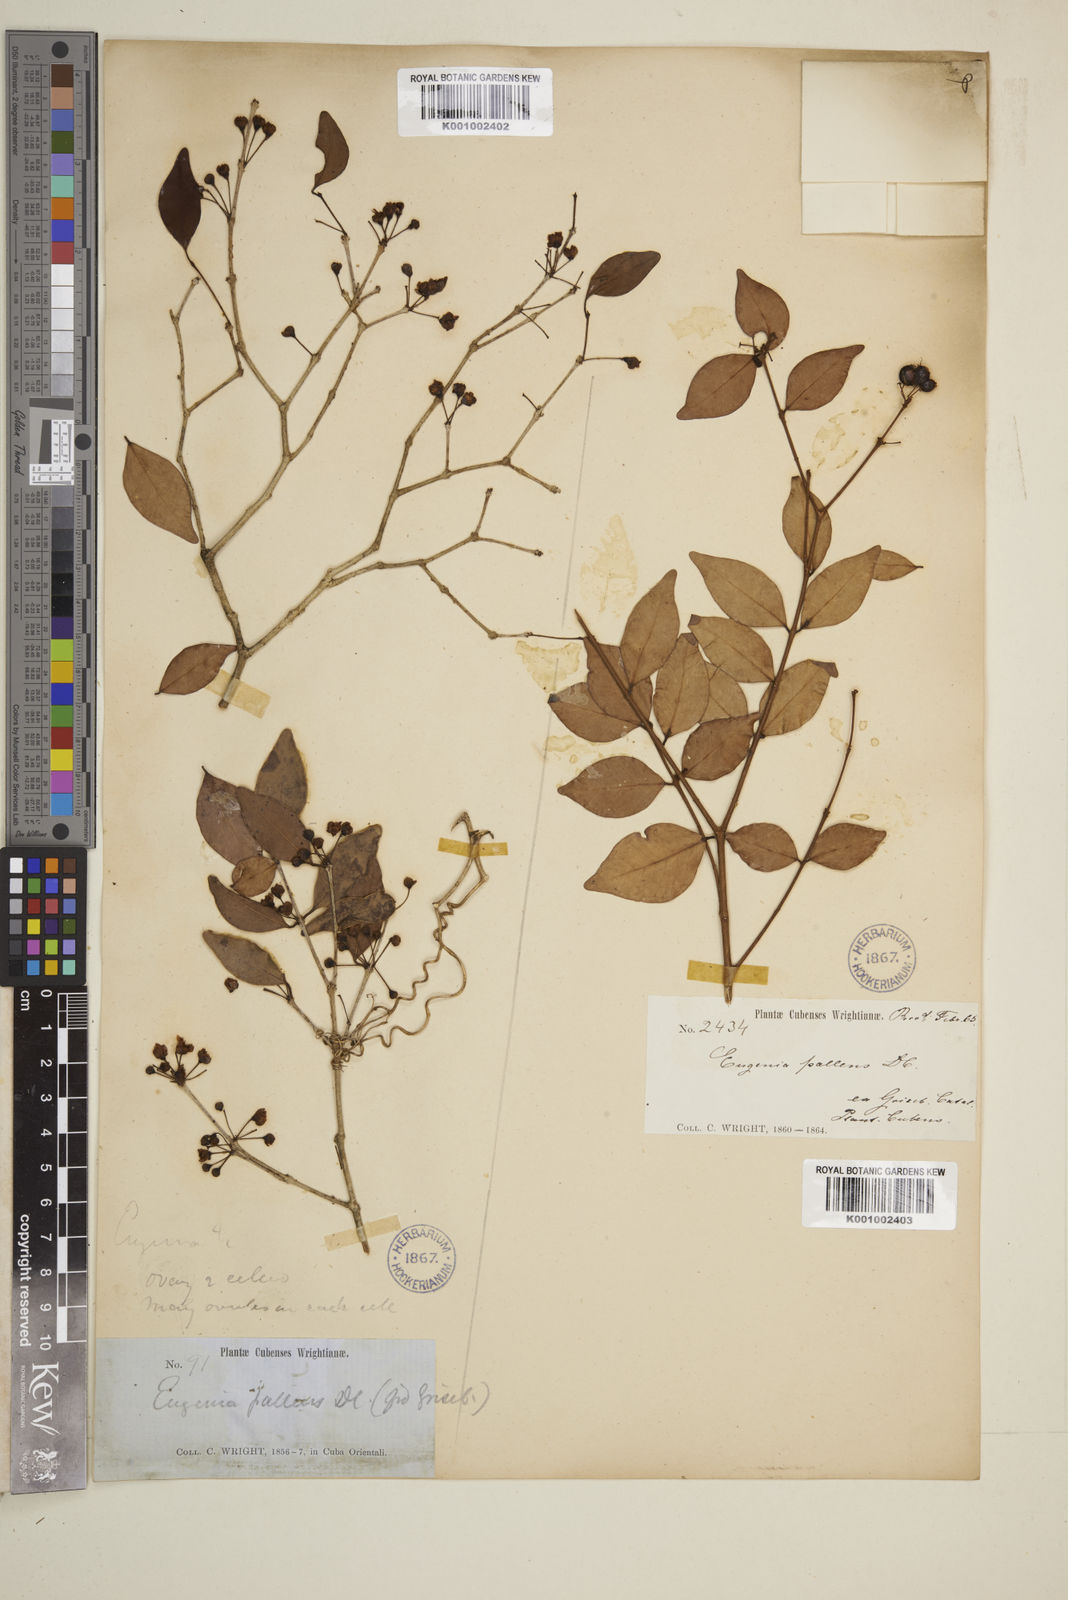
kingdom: Plantae
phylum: Tracheophyta
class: Magnoliopsida
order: Myrtales
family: Myrtaceae
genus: Eugenia
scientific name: Eugenia biflora
